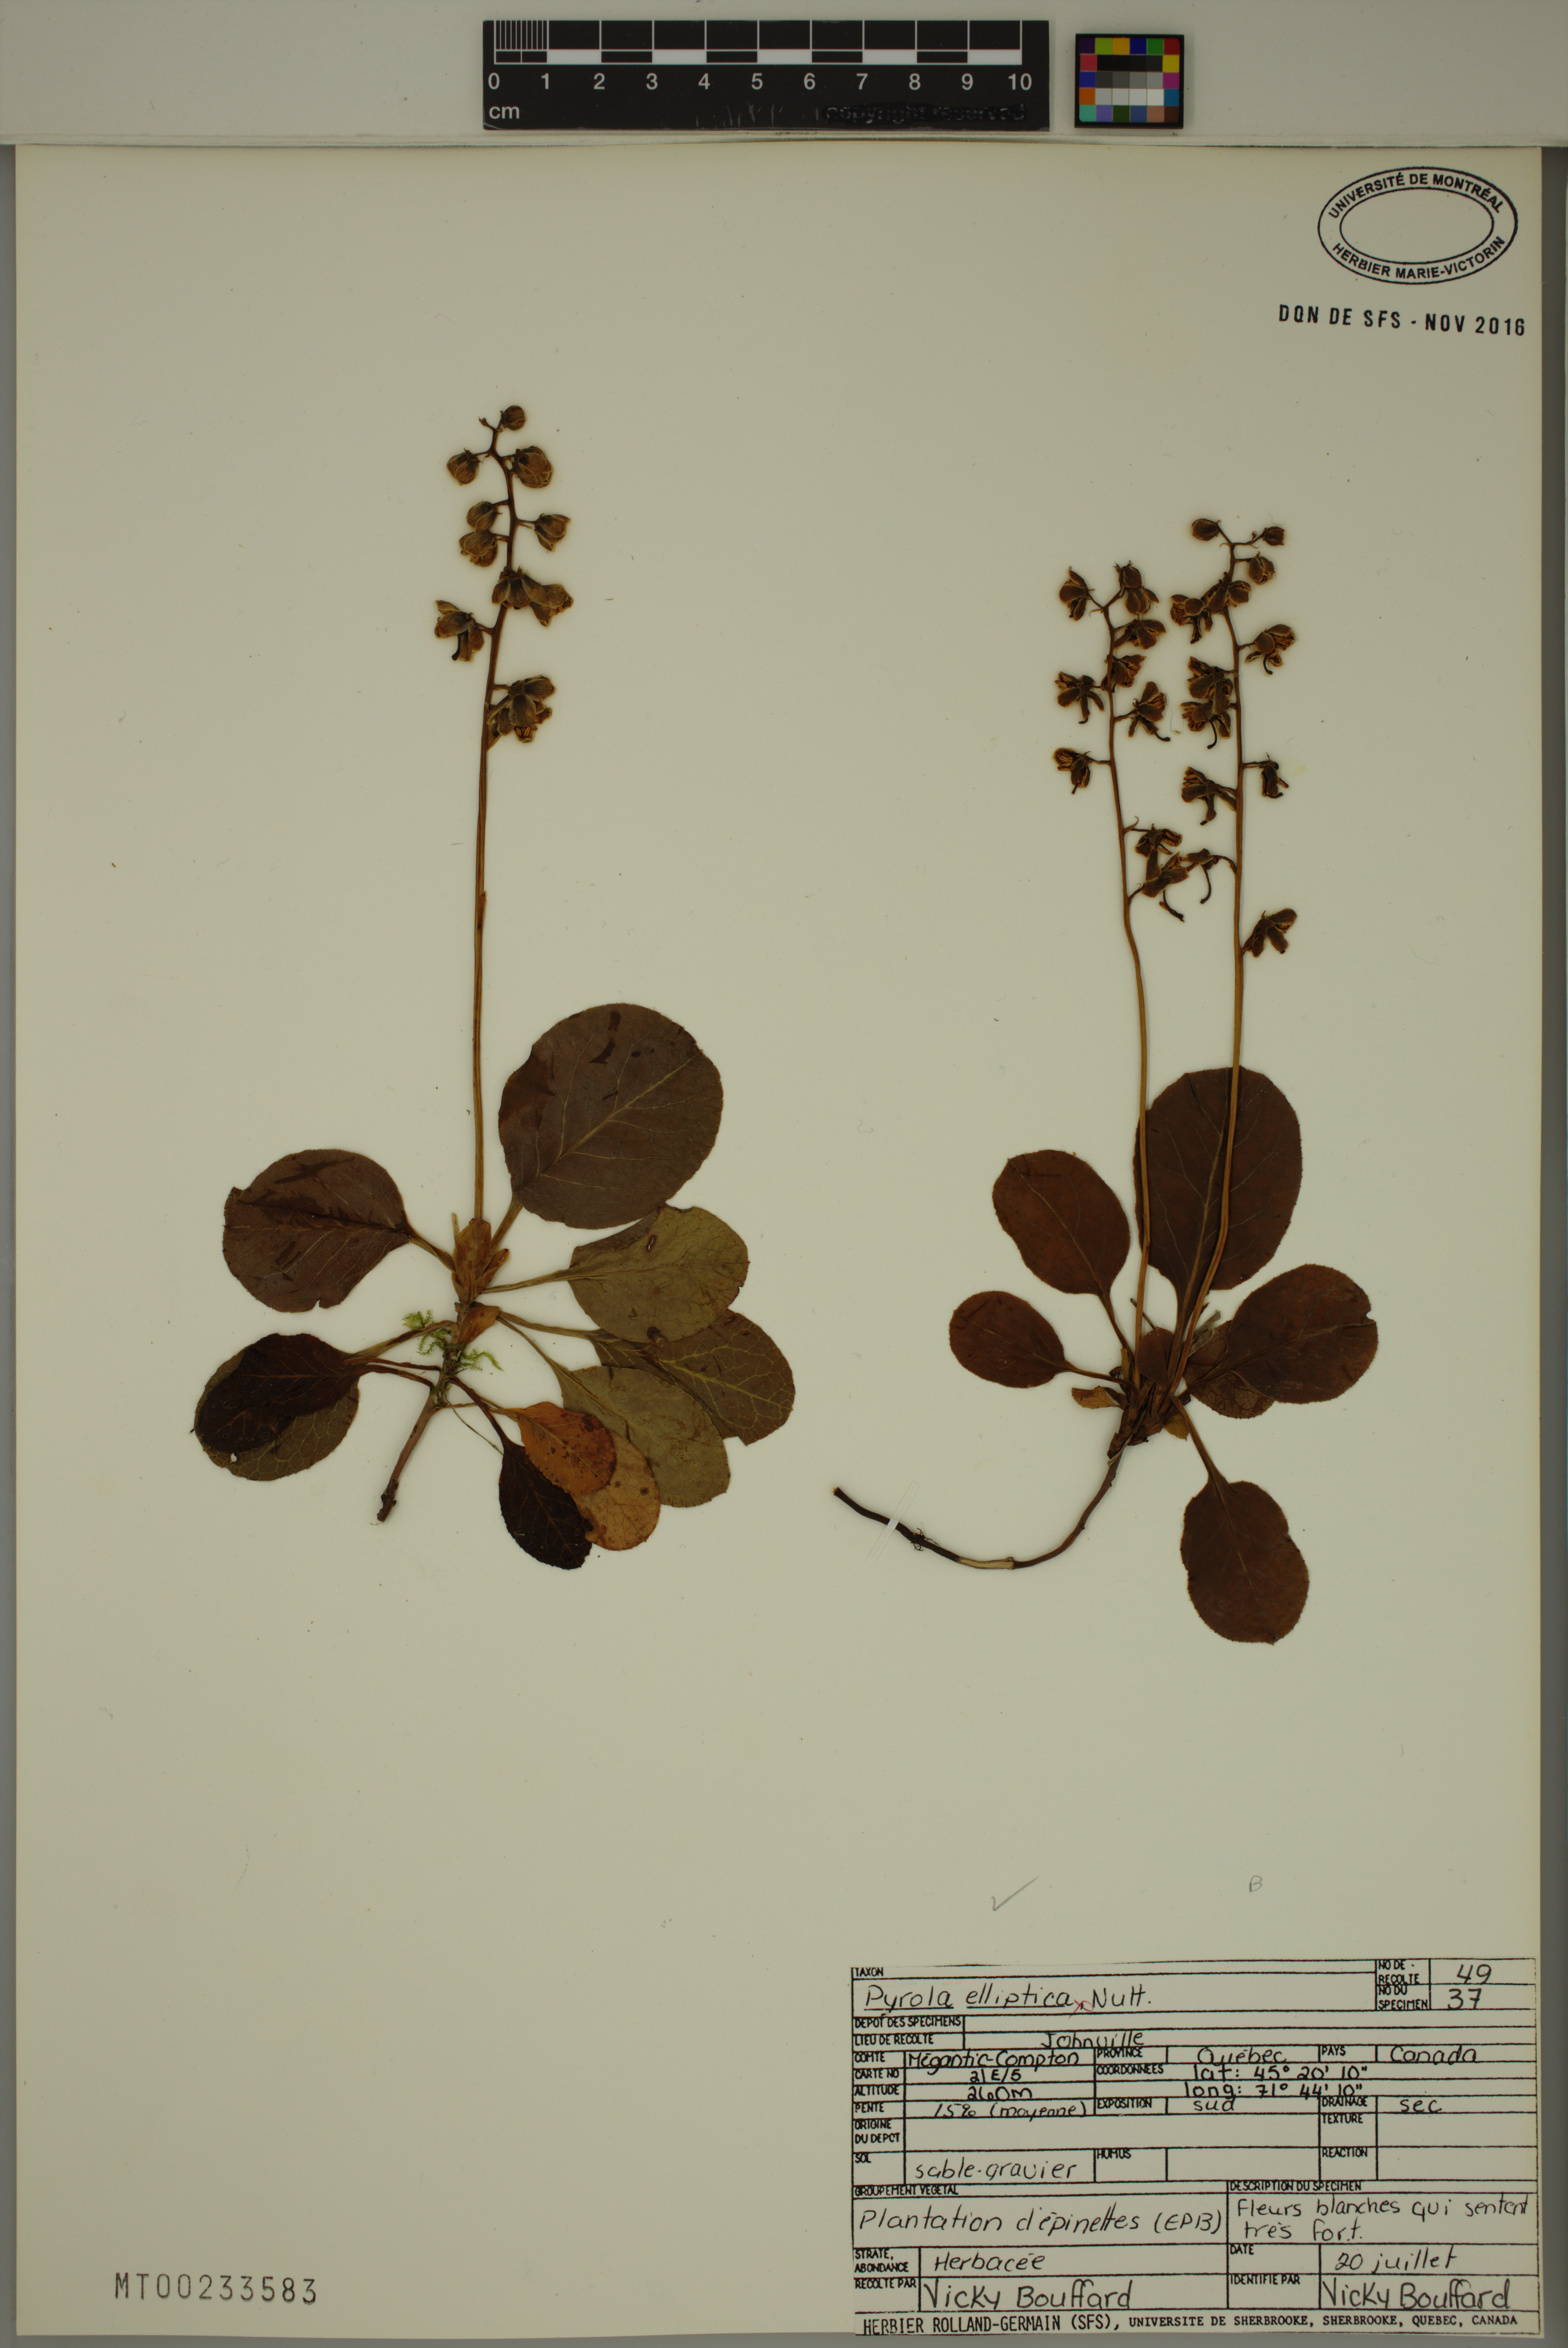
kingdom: Plantae
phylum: Tracheophyta
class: Magnoliopsida
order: Ericales
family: Ericaceae
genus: Pyrola
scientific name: Pyrola elliptica
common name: Shinleaf
